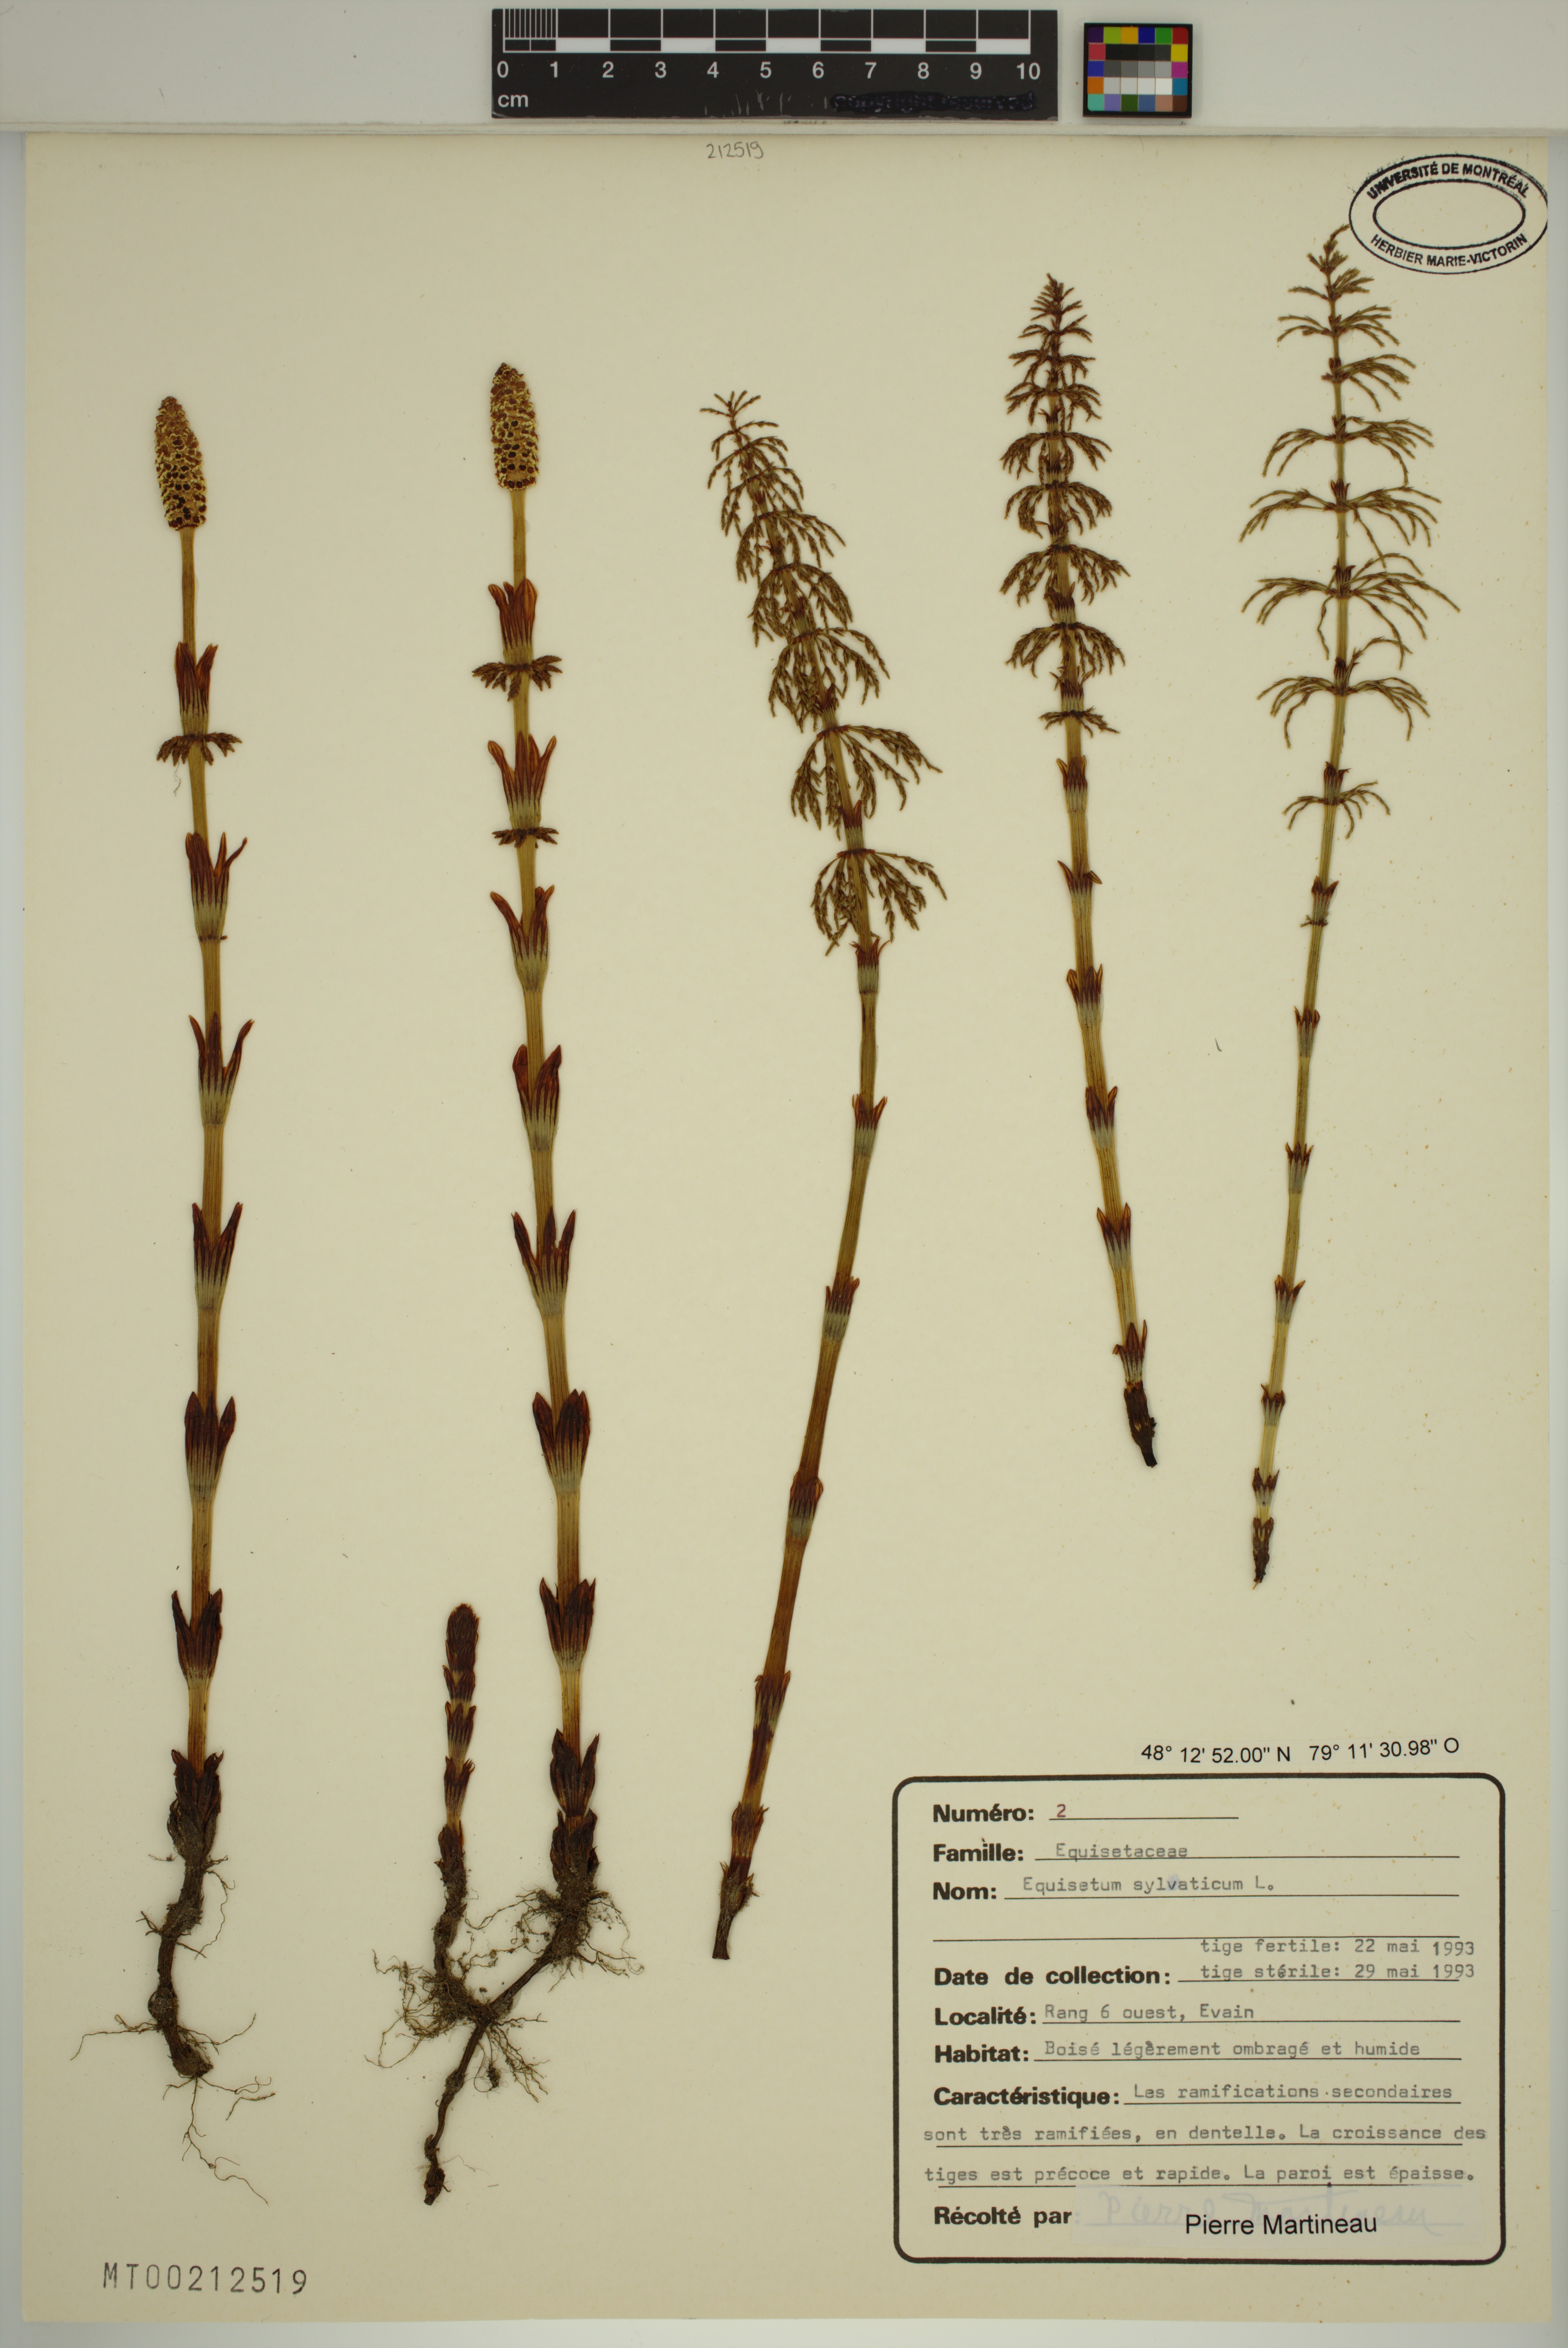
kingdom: Plantae
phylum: Tracheophyta
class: Polypodiopsida
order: Equisetales
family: Equisetaceae
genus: Equisetum
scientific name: Equisetum sylvaticum
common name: Wood horsetail
